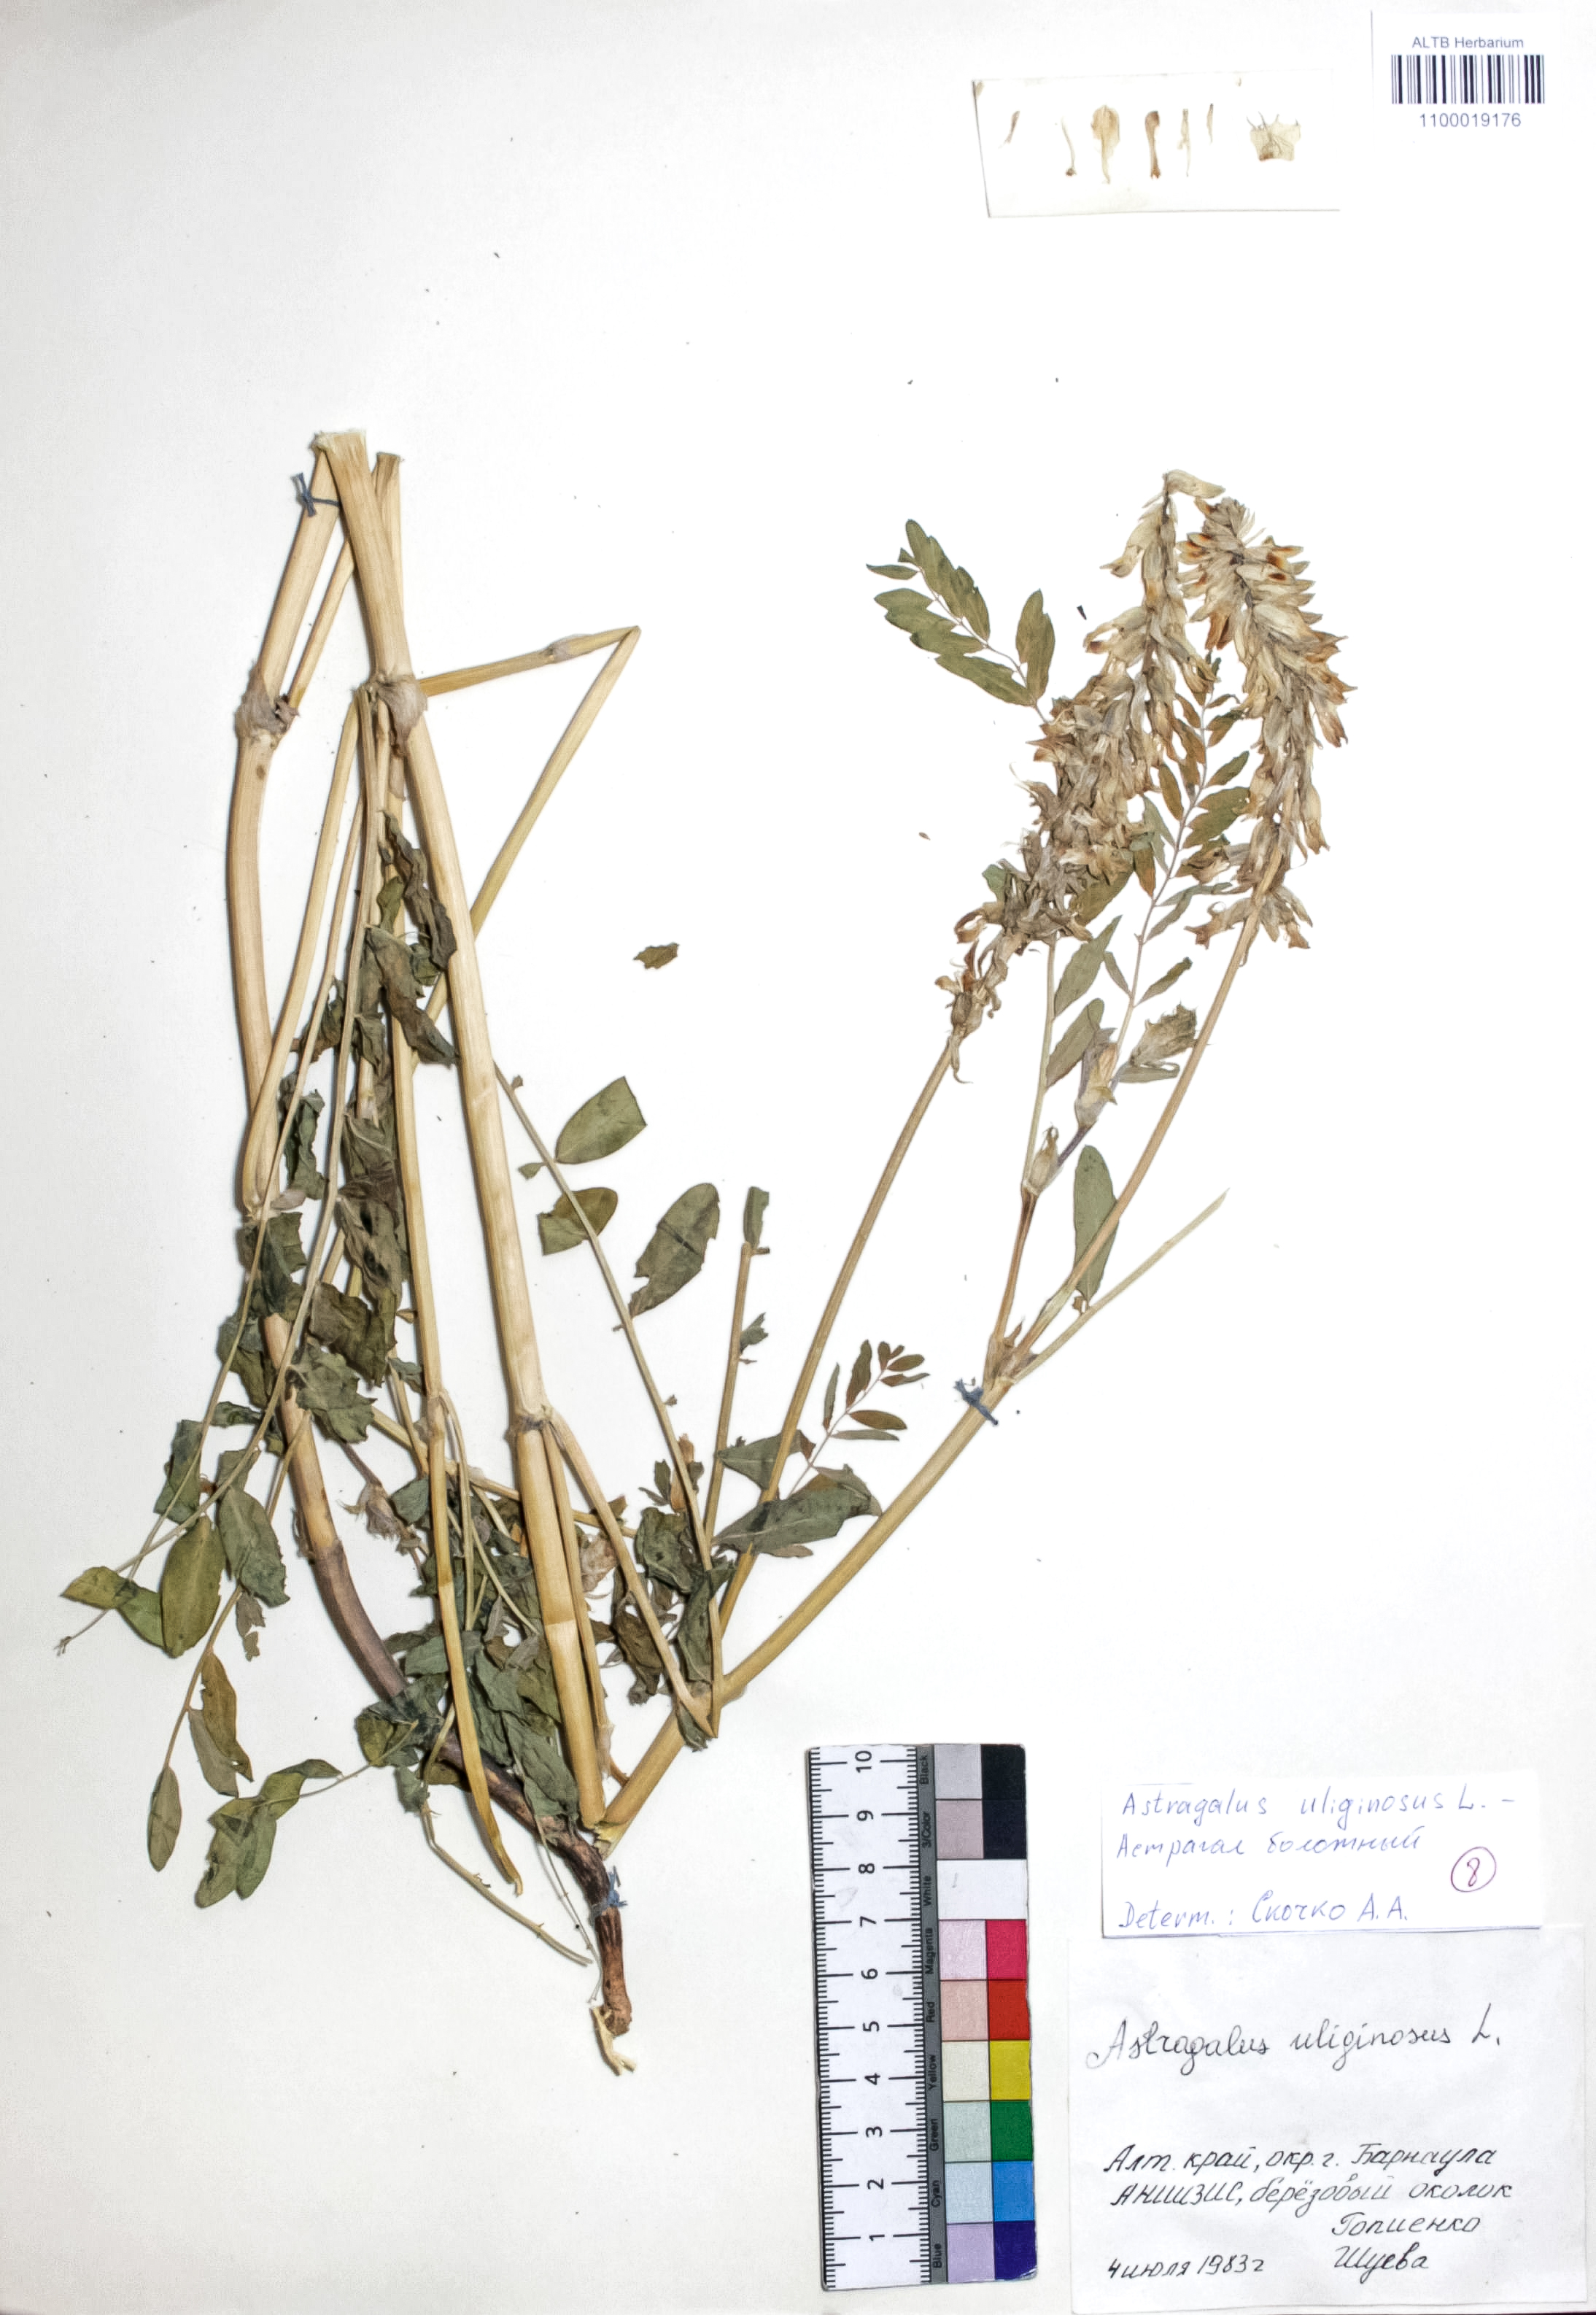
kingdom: Plantae
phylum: Tracheophyta
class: Magnoliopsida
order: Fabales
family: Fabaceae
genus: Astragalus
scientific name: Astragalus uliginosus
